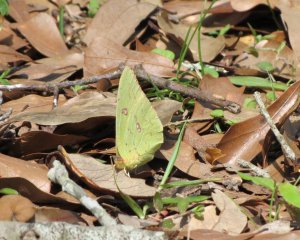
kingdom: Animalia
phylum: Arthropoda
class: Insecta
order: Lepidoptera
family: Pieridae
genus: Phoebis
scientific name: Phoebis sennae
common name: Cloudless Sulphur
